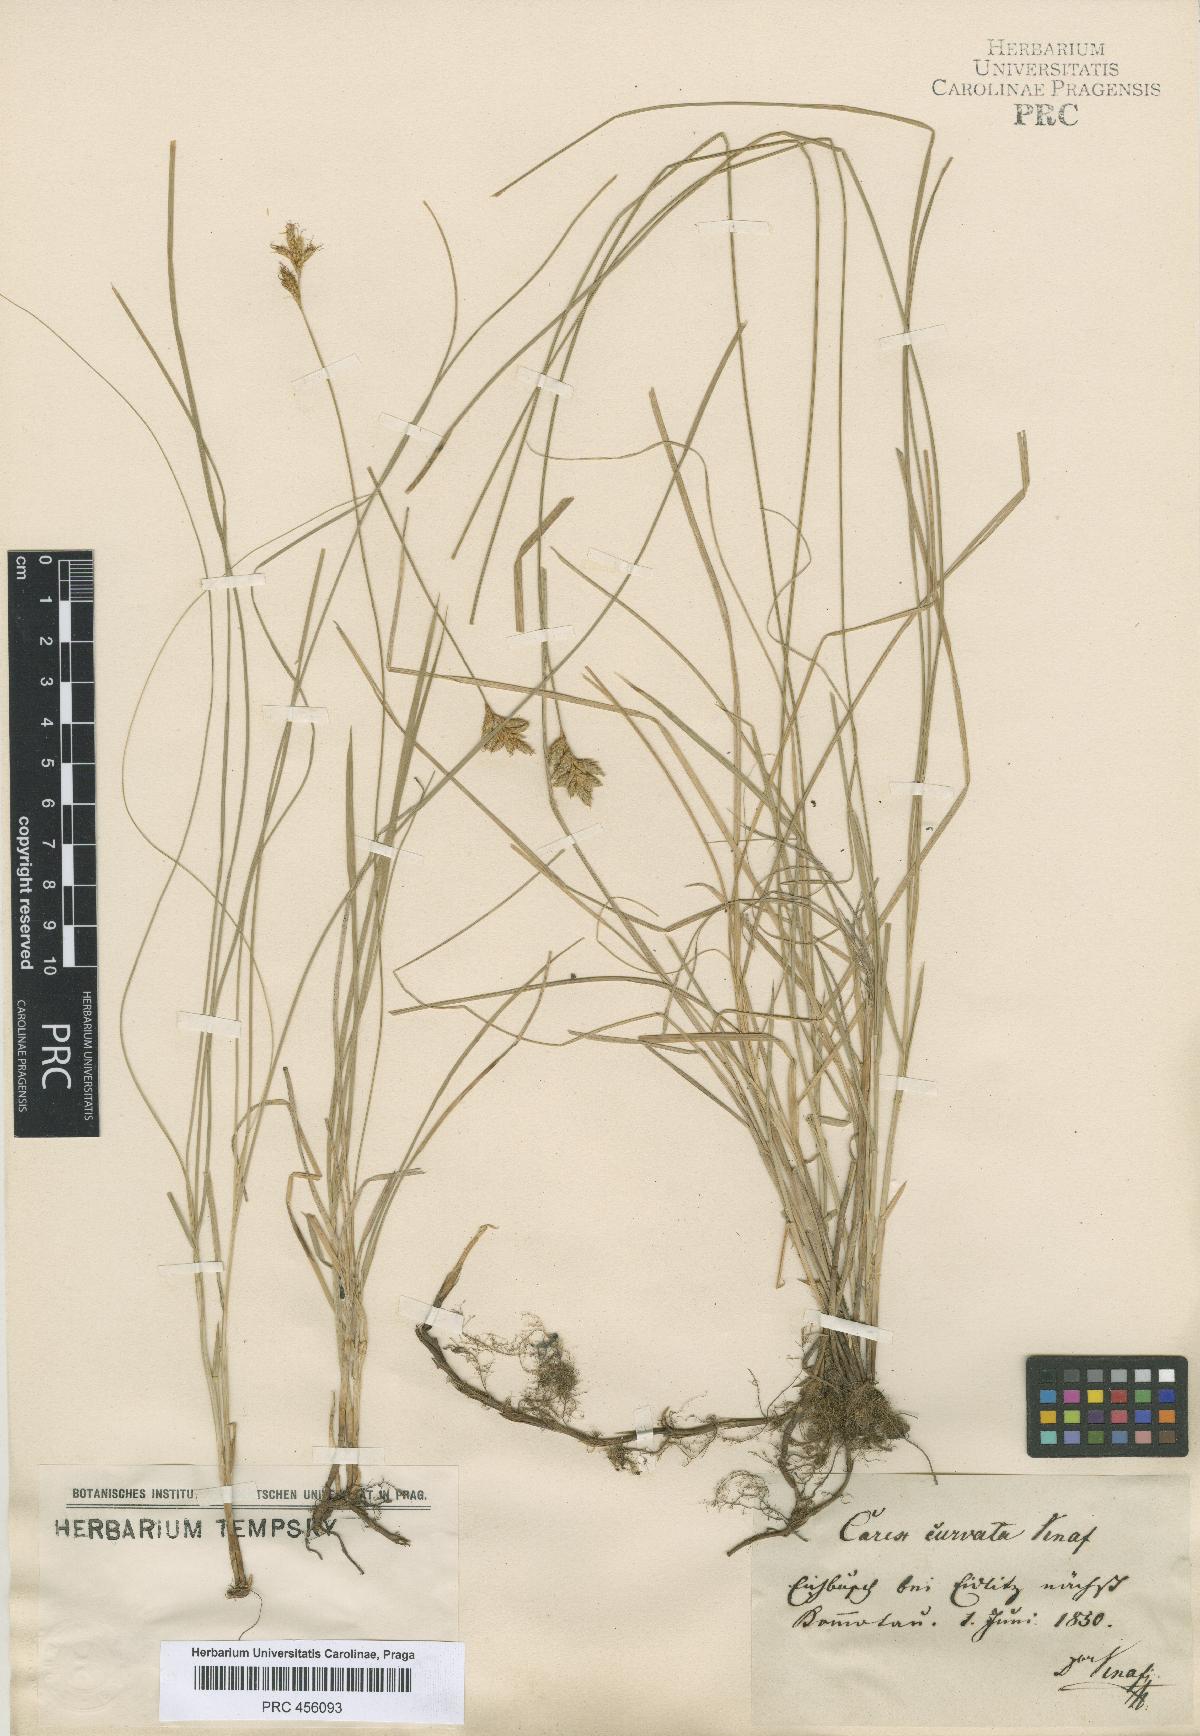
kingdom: Plantae
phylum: Tracheophyta
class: Liliopsida
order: Poales
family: Cyperaceae
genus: Carex
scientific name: Carex curvata
